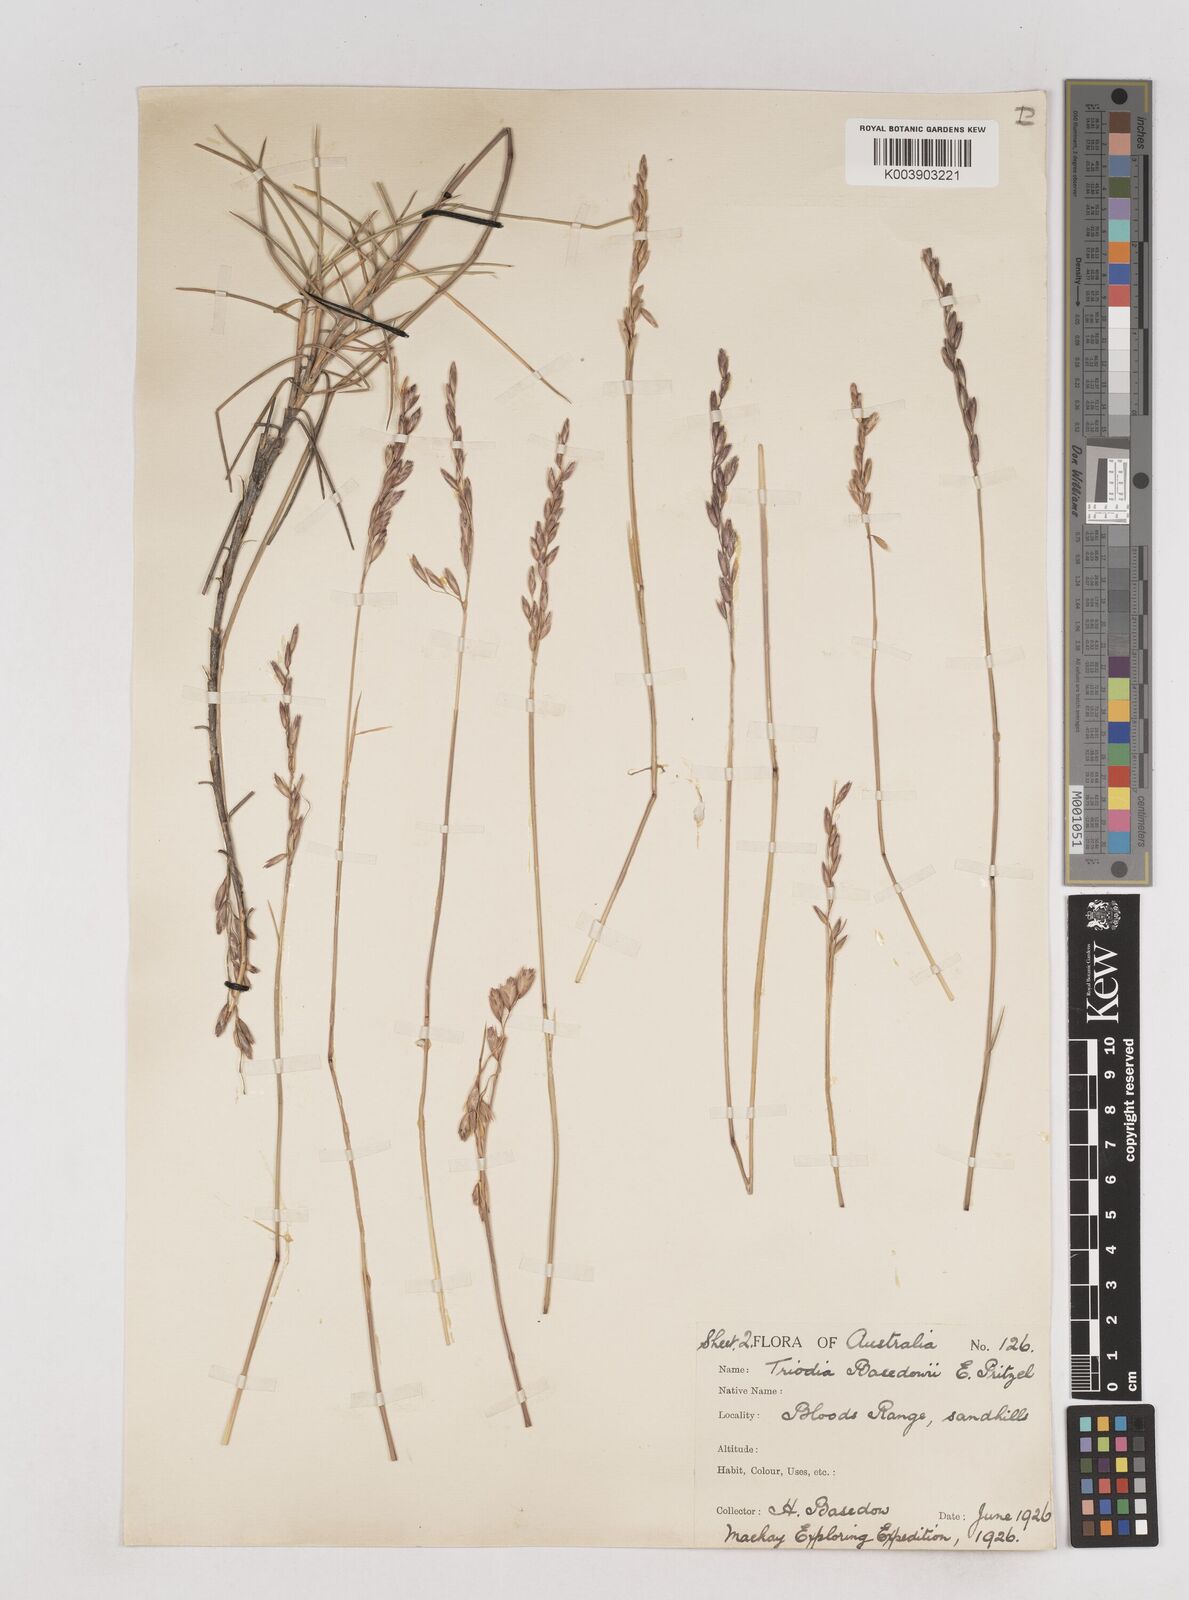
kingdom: Plantae
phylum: Tracheophyta
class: Liliopsida
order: Poales
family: Poaceae
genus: Triodia
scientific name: Triodia basedowii
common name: Hard spinifex
